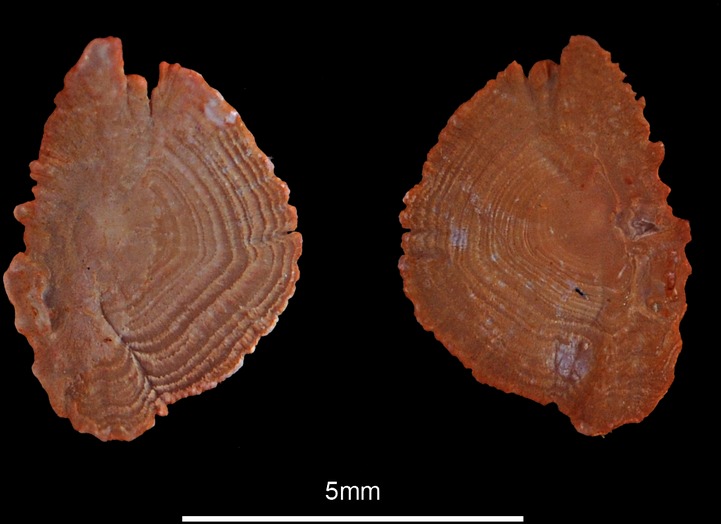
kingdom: Animalia
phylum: Chordata
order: Scorpaeniformes
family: Triglidae
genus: Chelidonichthys
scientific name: Chelidonichthys cuculus
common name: Red gurnard
